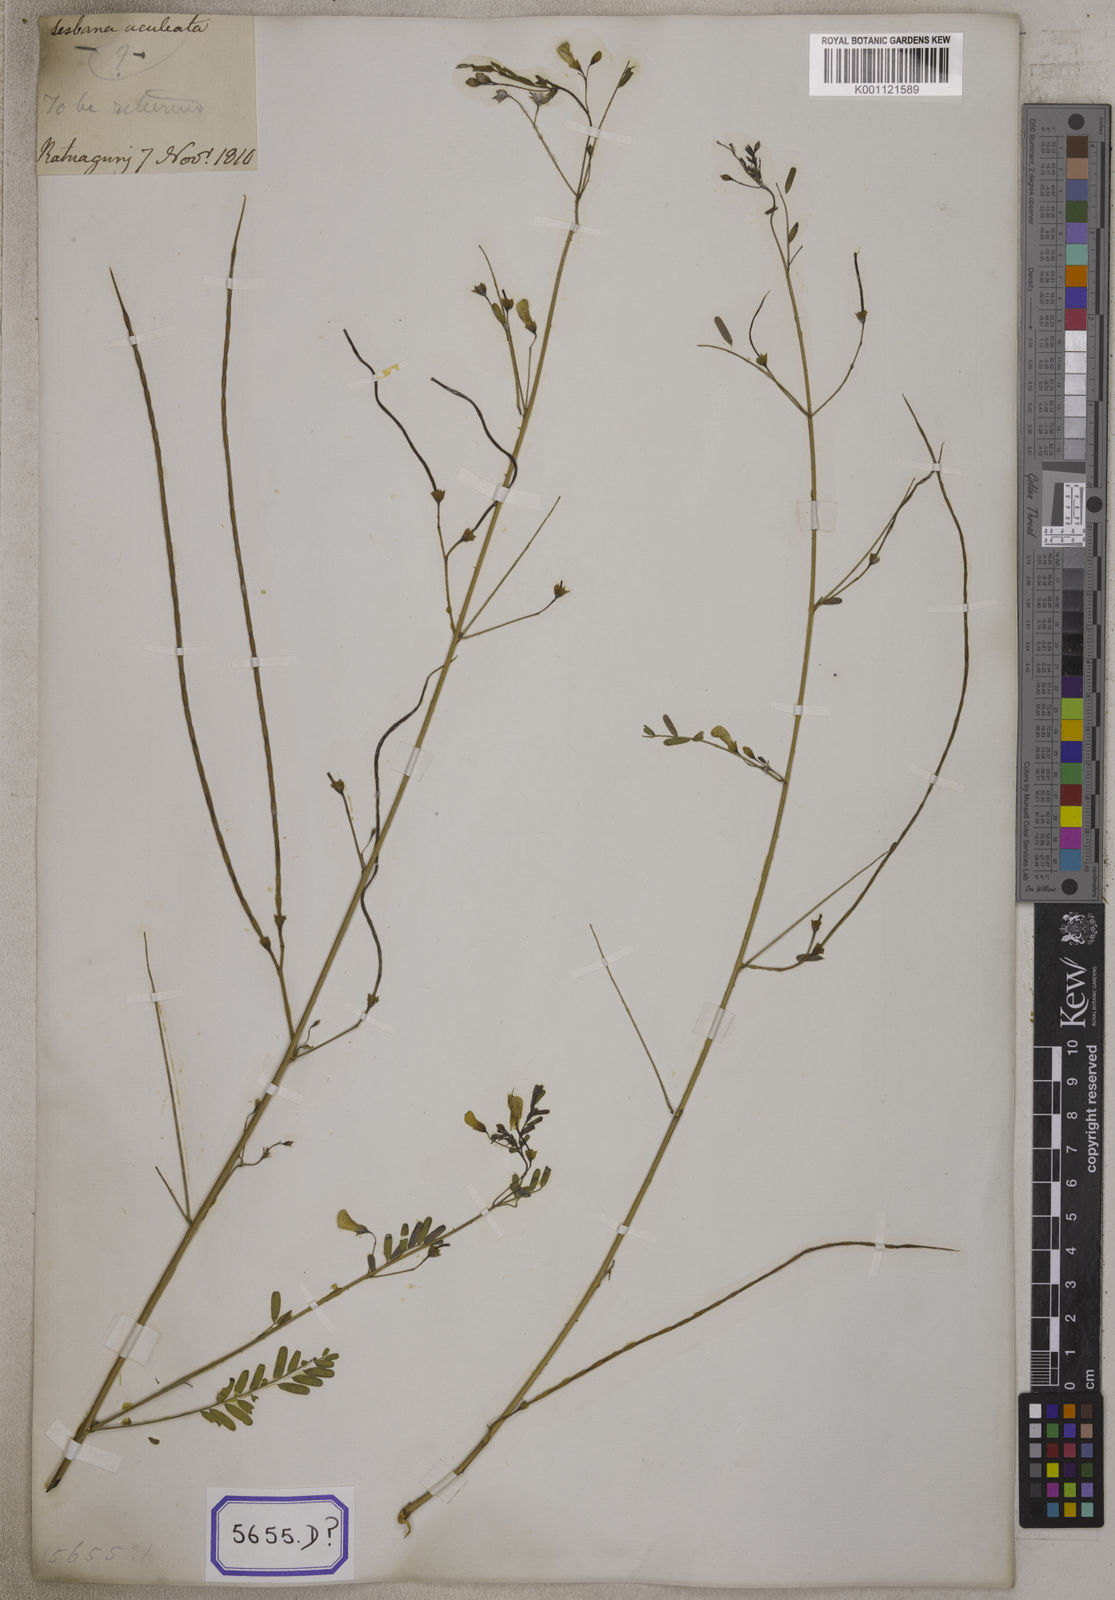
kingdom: Plantae
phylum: Tracheophyta
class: Magnoliopsida
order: Fabales
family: Fabaceae
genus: Sesbania
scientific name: Sesbania bispinosa
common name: Sesbania pea
